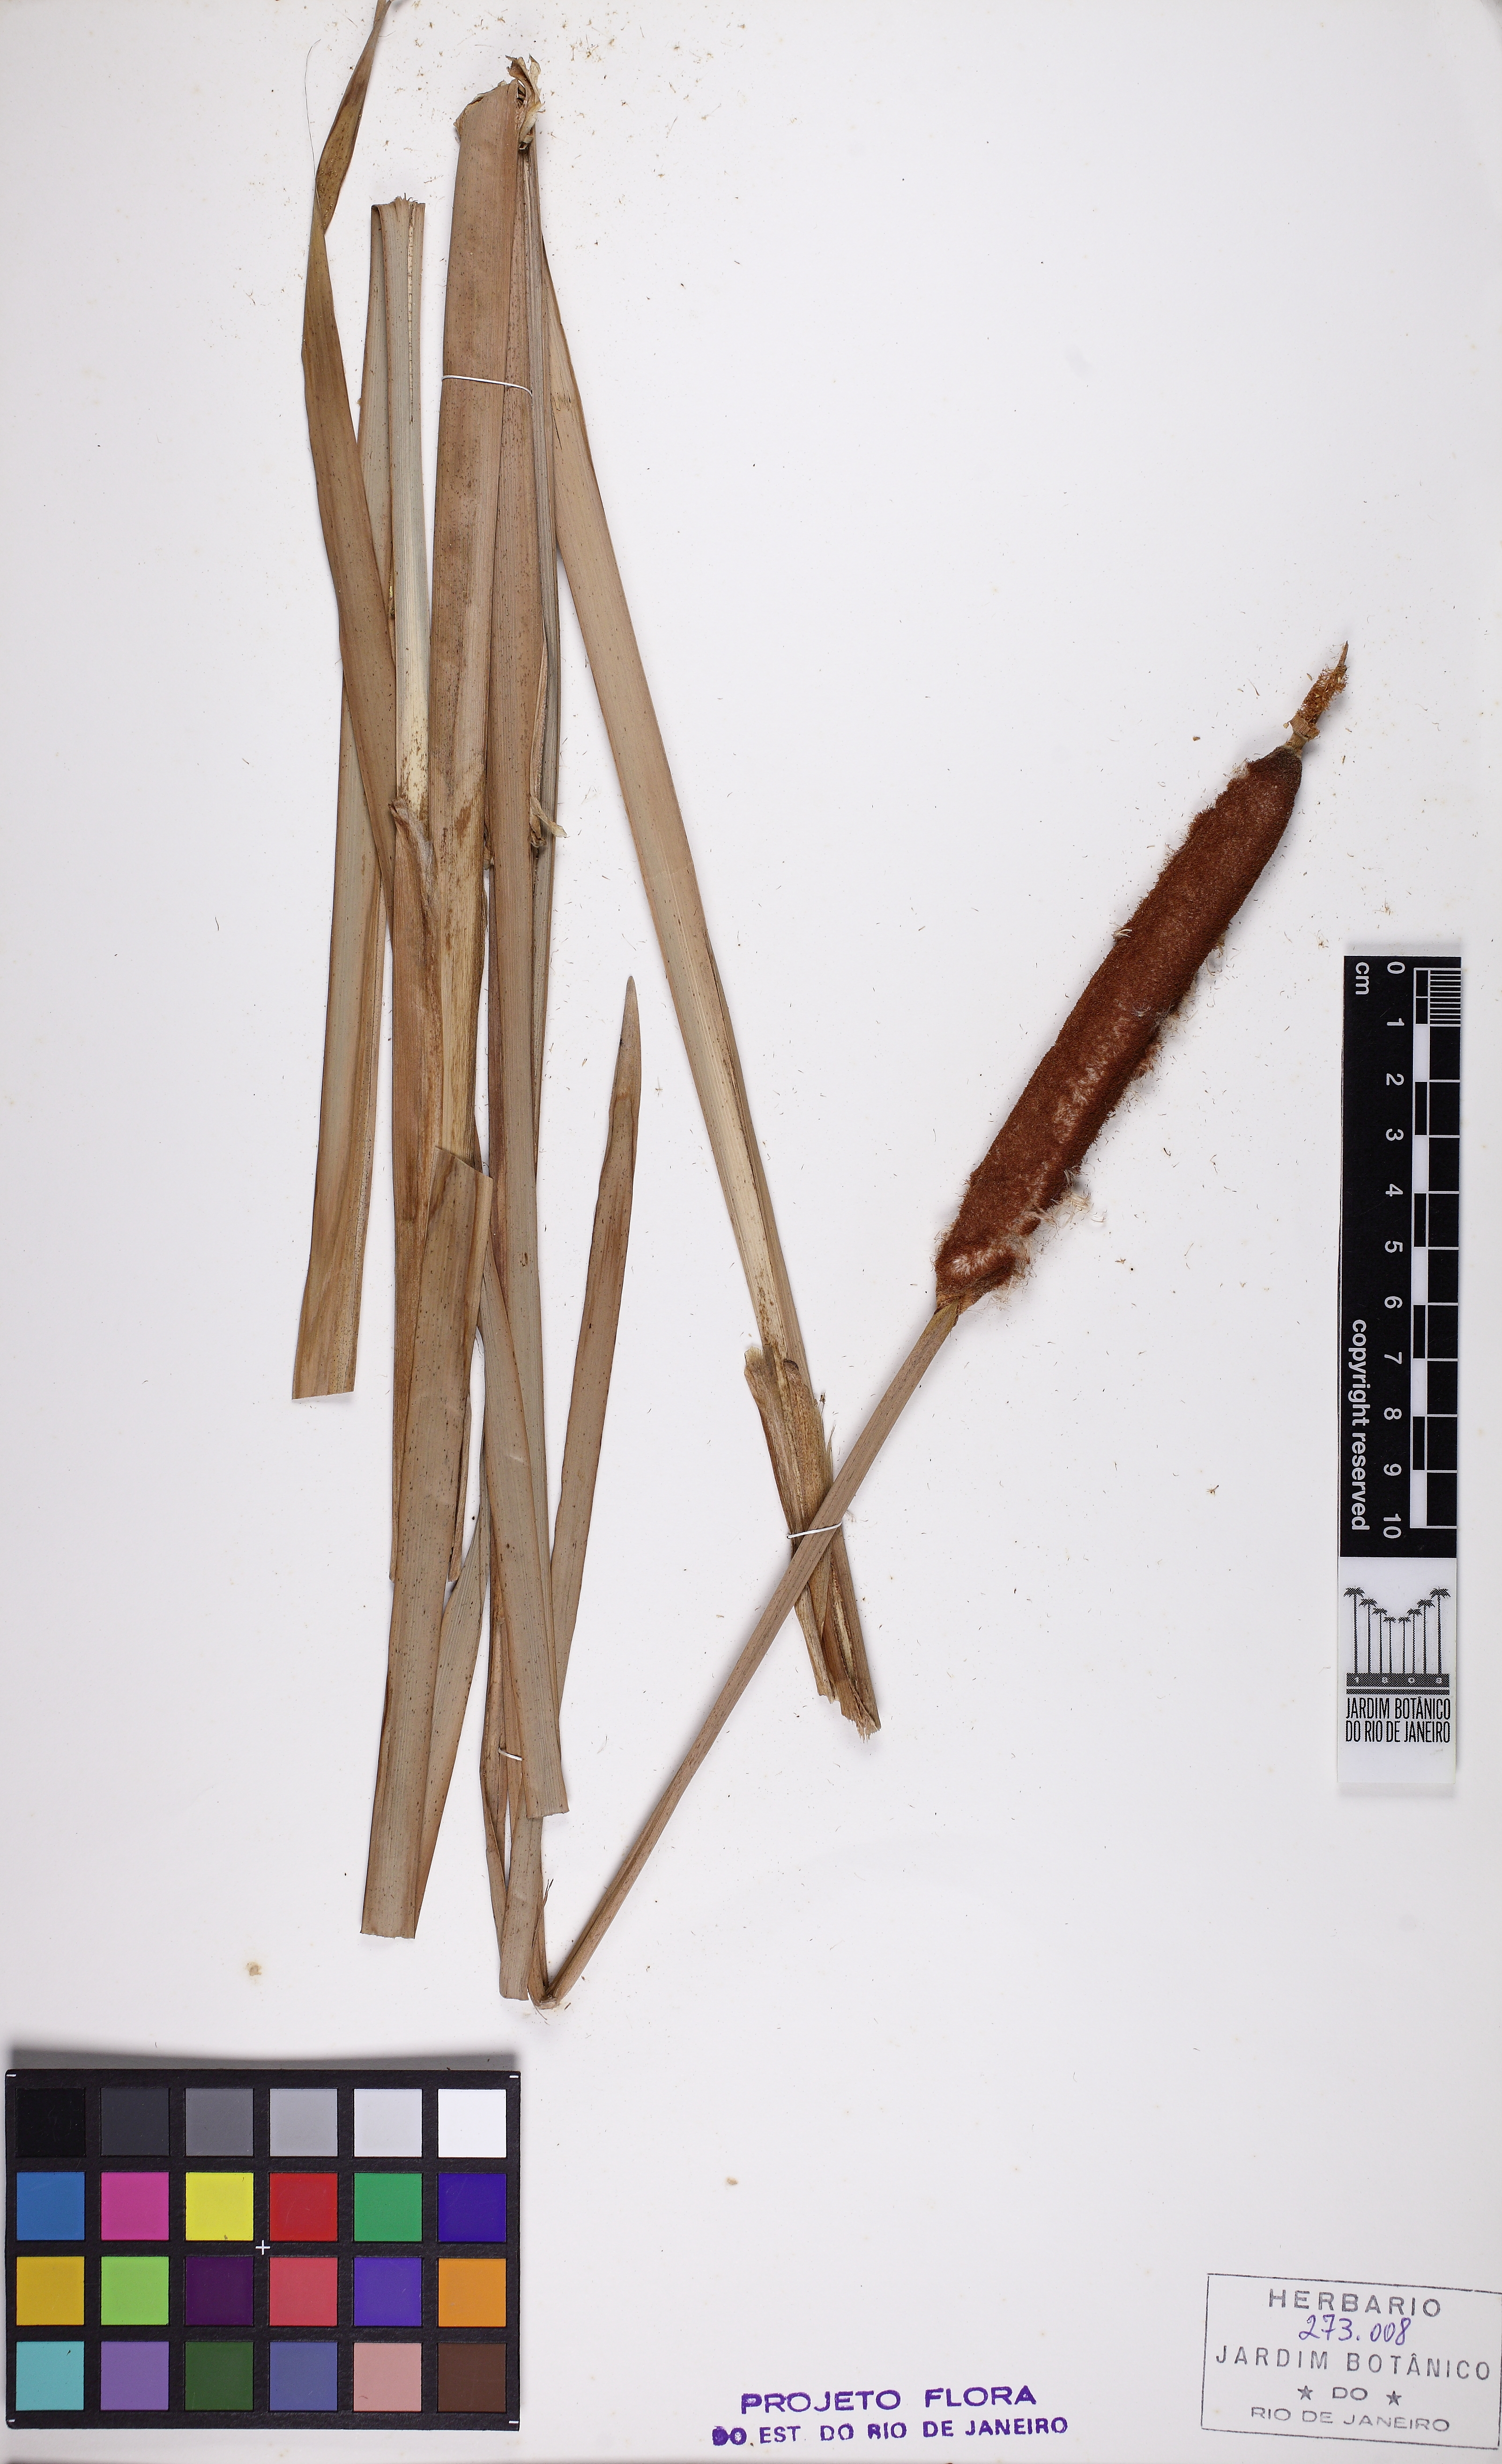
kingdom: Plantae
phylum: Tracheophyta
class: Liliopsida
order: Poales
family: Typhaceae
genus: Typha
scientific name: Typha domingensis
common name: Southern cattail
